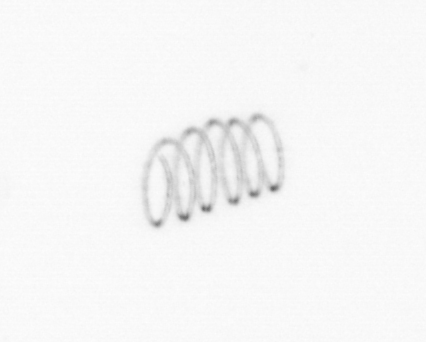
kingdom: Chromista
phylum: Ochrophyta
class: Bacillariophyceae
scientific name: Bacillariophyceae
